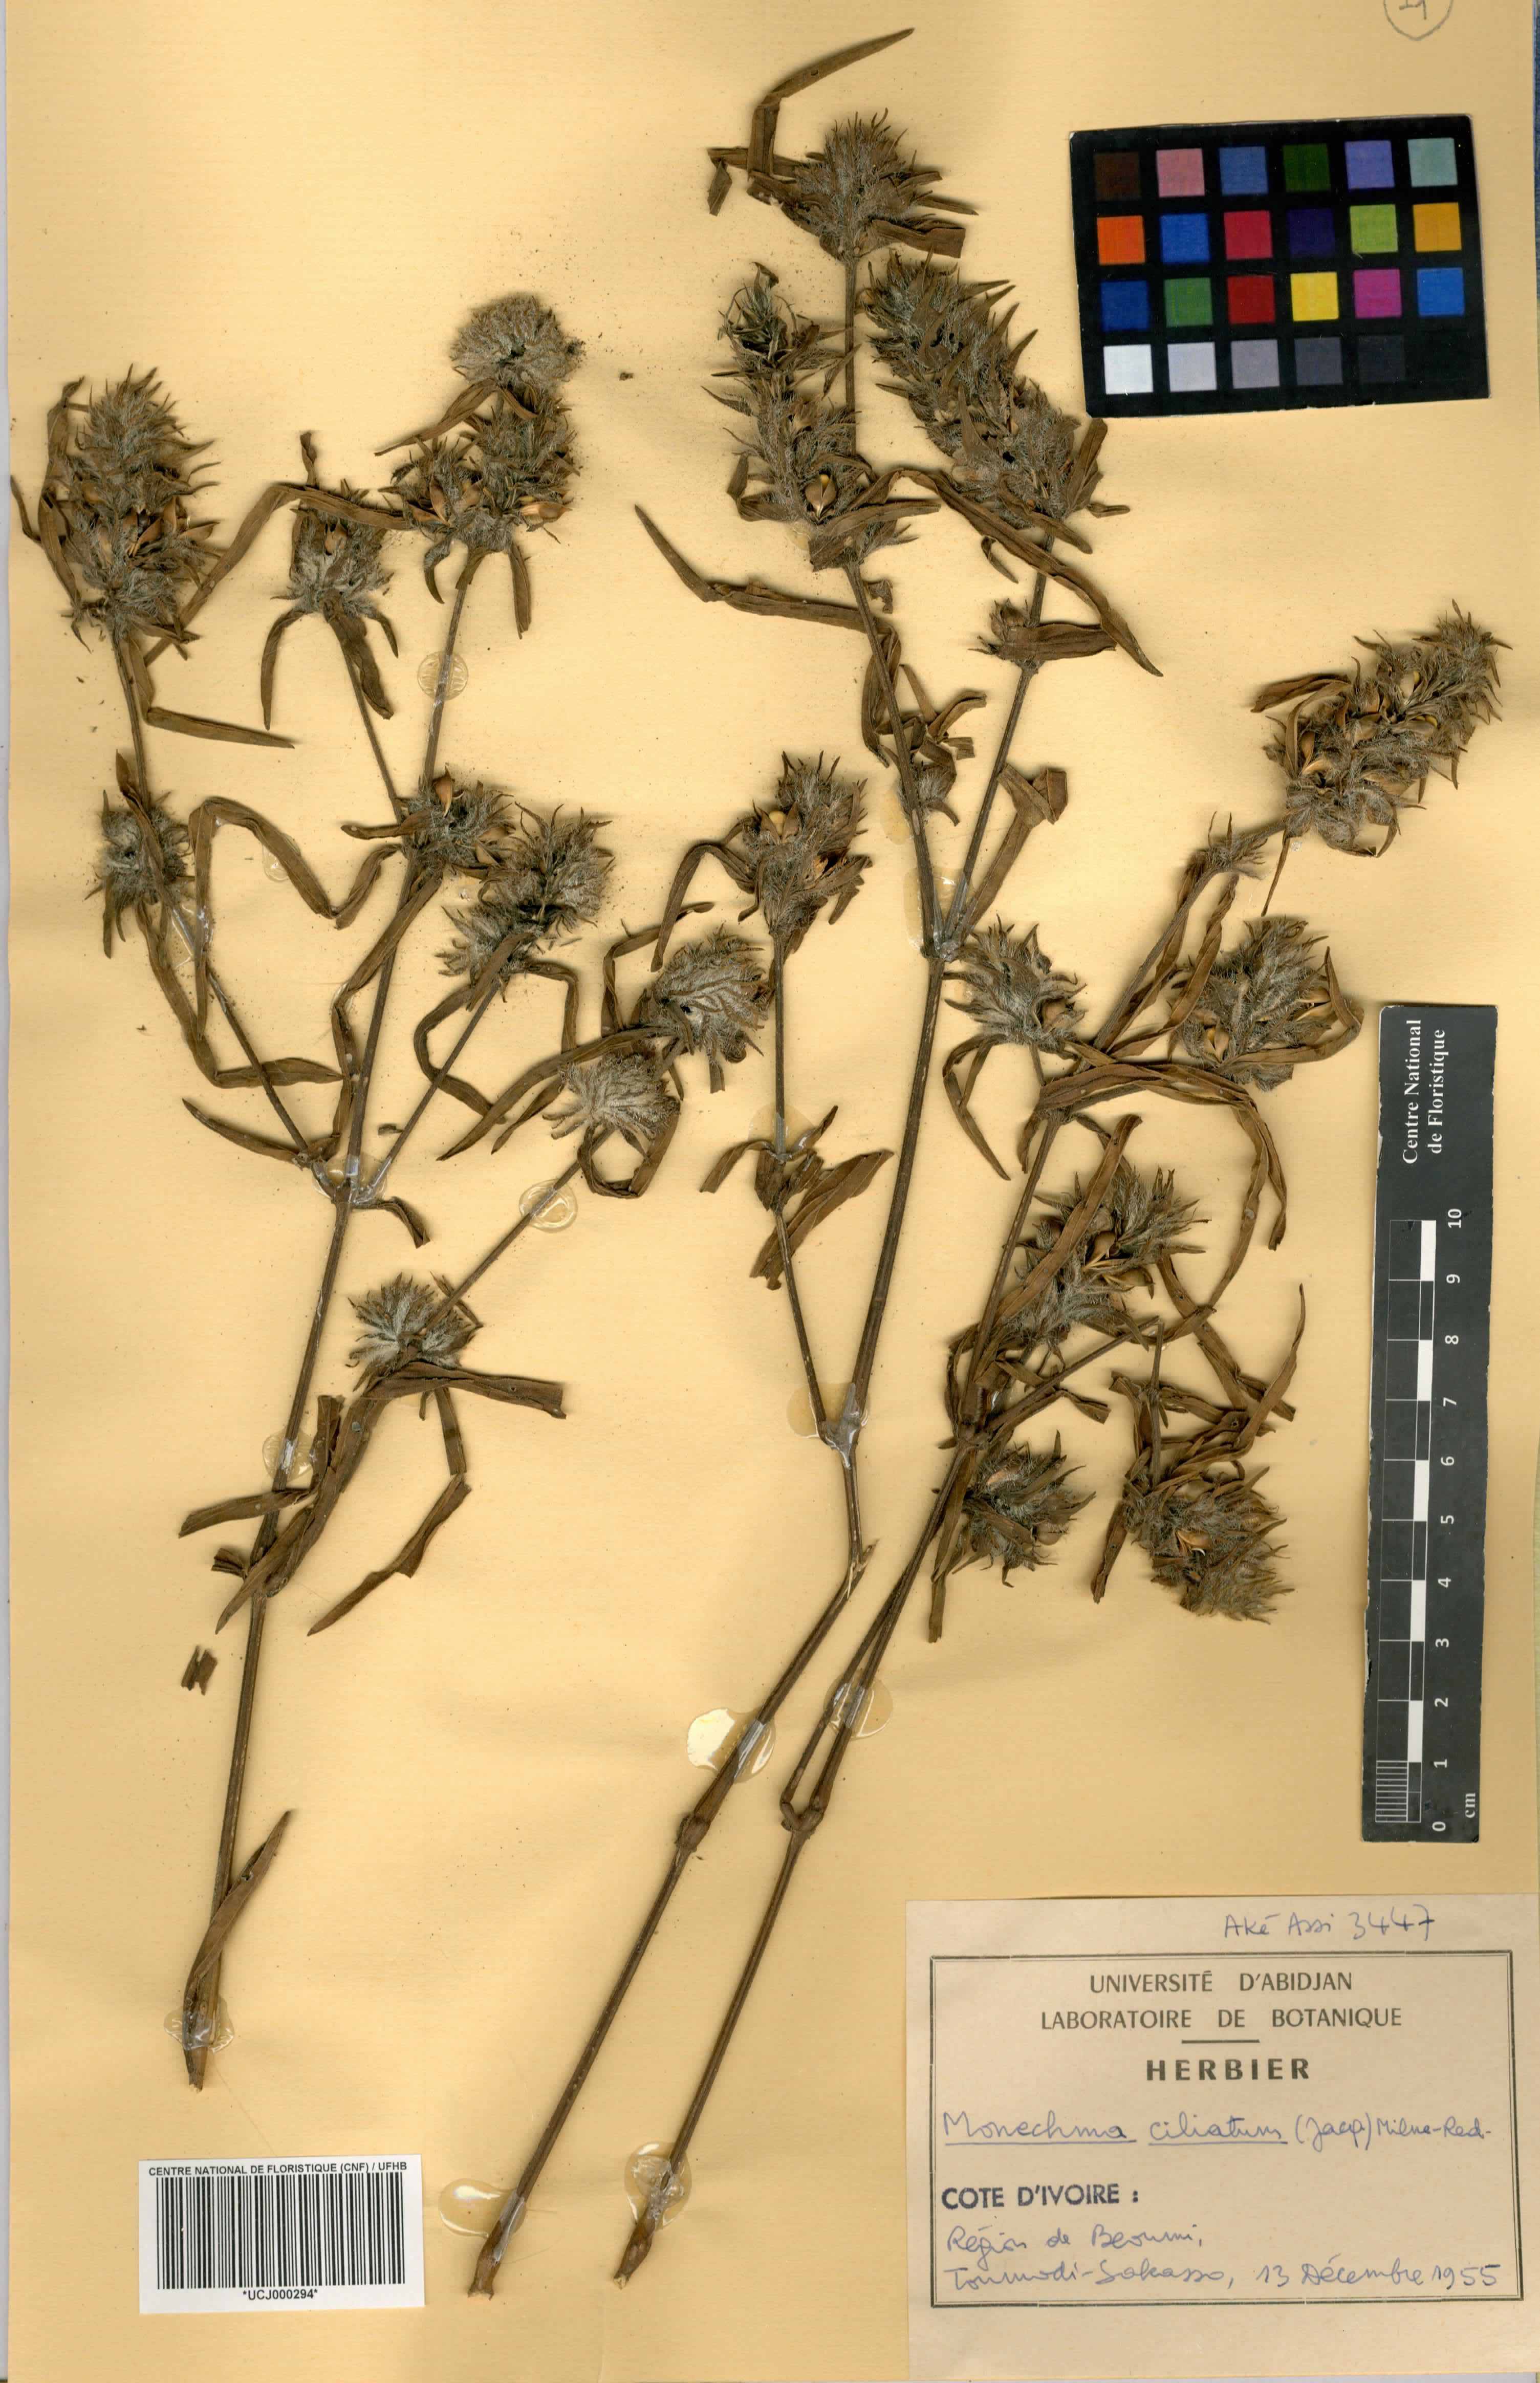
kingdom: Plantae
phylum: Tracheophyta
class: Magnoliopsida
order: Lamiales
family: Acanthaceae
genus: Monechma
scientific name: Monechma
